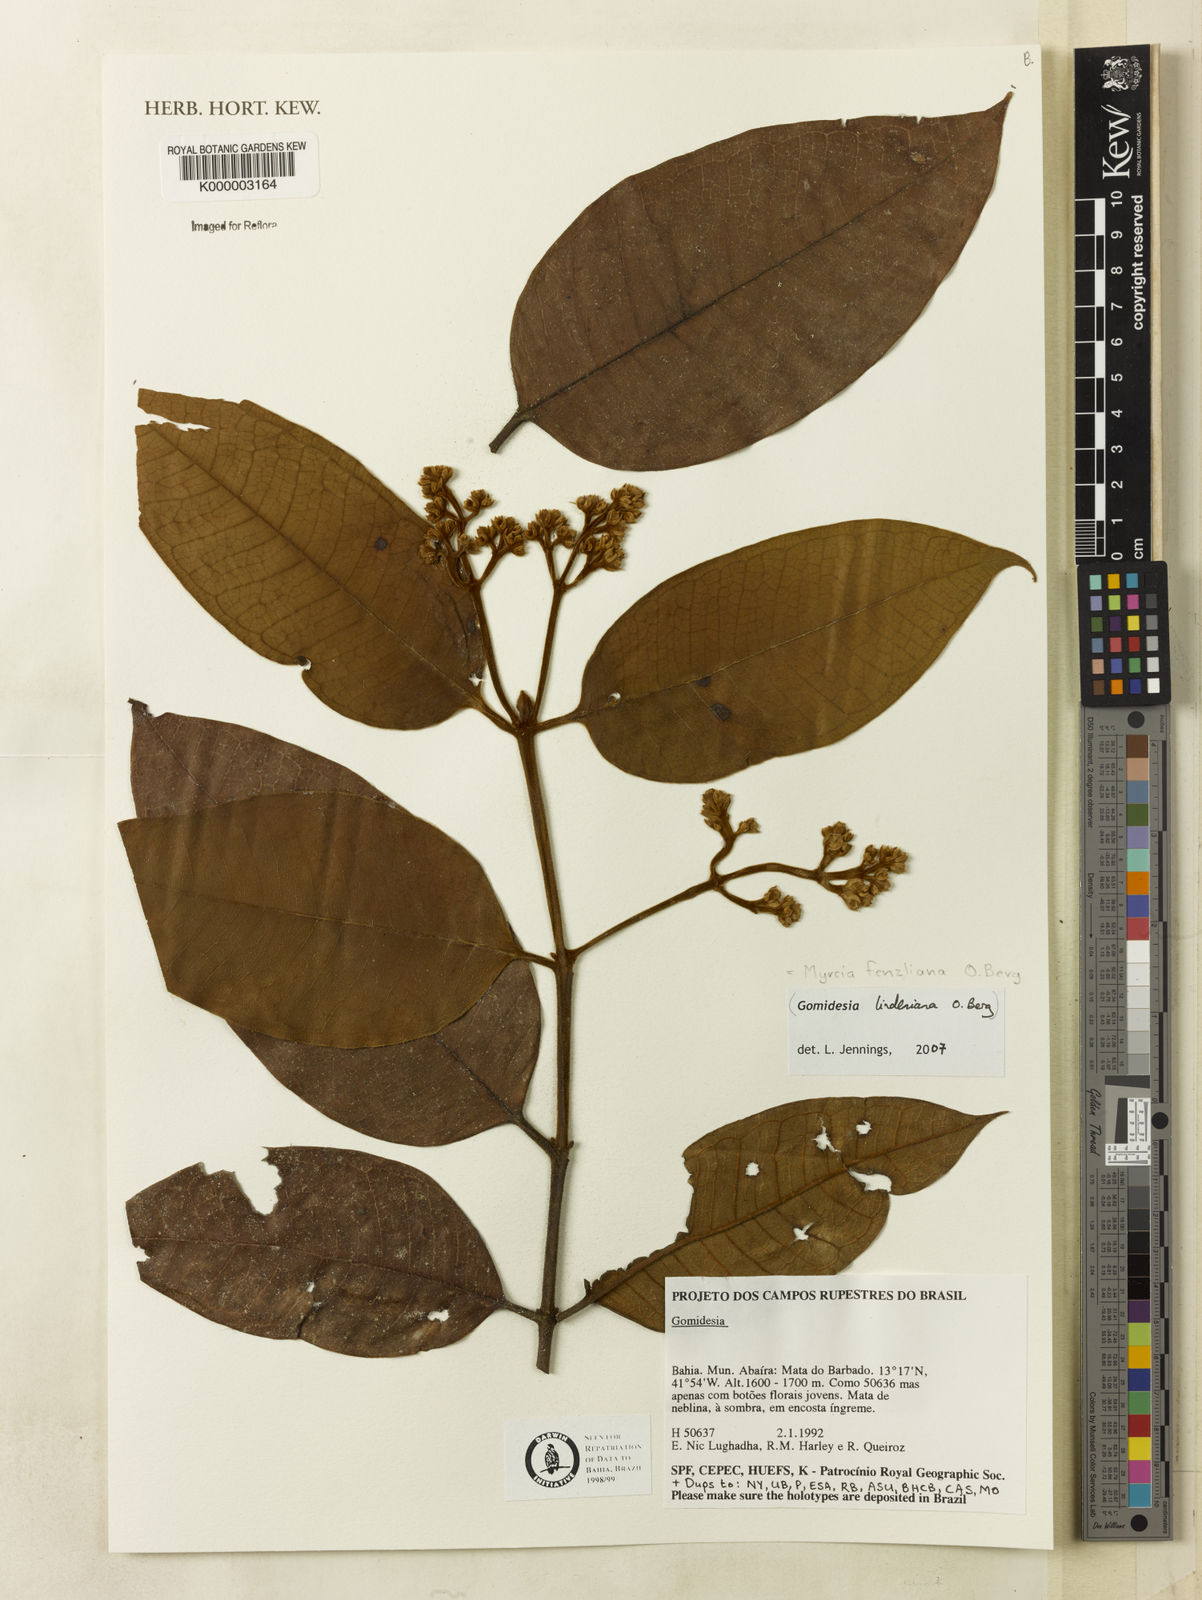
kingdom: Plantae
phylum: Tracheophyta
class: Magnoliopsida
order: Myrtales
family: Myrtaceae
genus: Myrcia
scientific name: Myrcia
